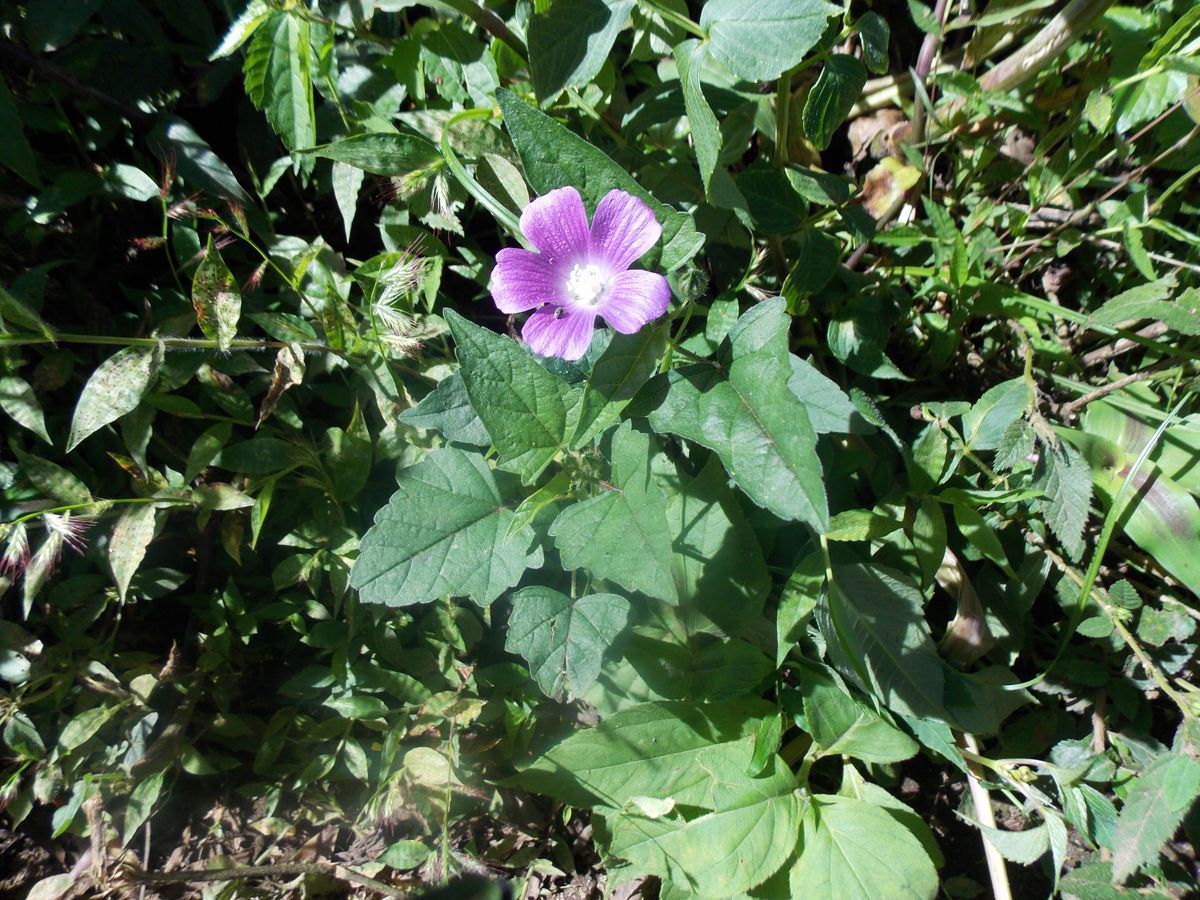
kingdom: Plantae
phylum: Tracheophyta
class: Magnoliopsida
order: Malvales
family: Malvaceae
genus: Anoda
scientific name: Anoda cristata
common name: Spurred anoda
